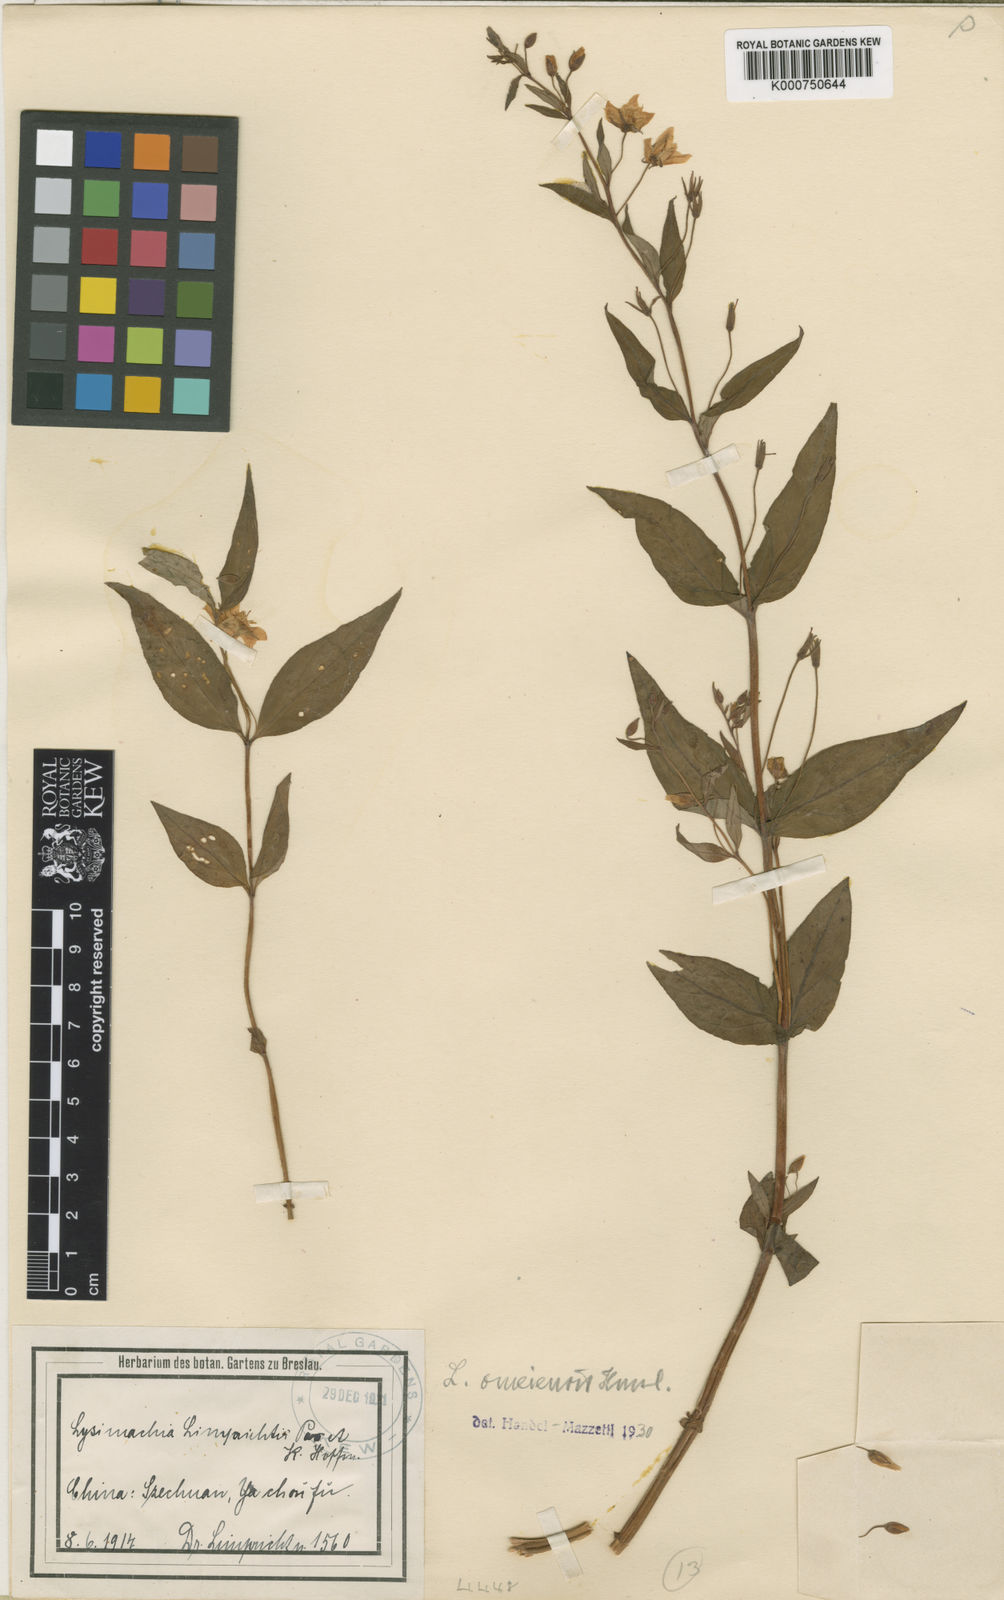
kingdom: Plantae
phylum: Tracheophyta
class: Magnoliopsida
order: Ericales
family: Primulaceae
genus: Lysimachia
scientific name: Lysimachia omeiensis
